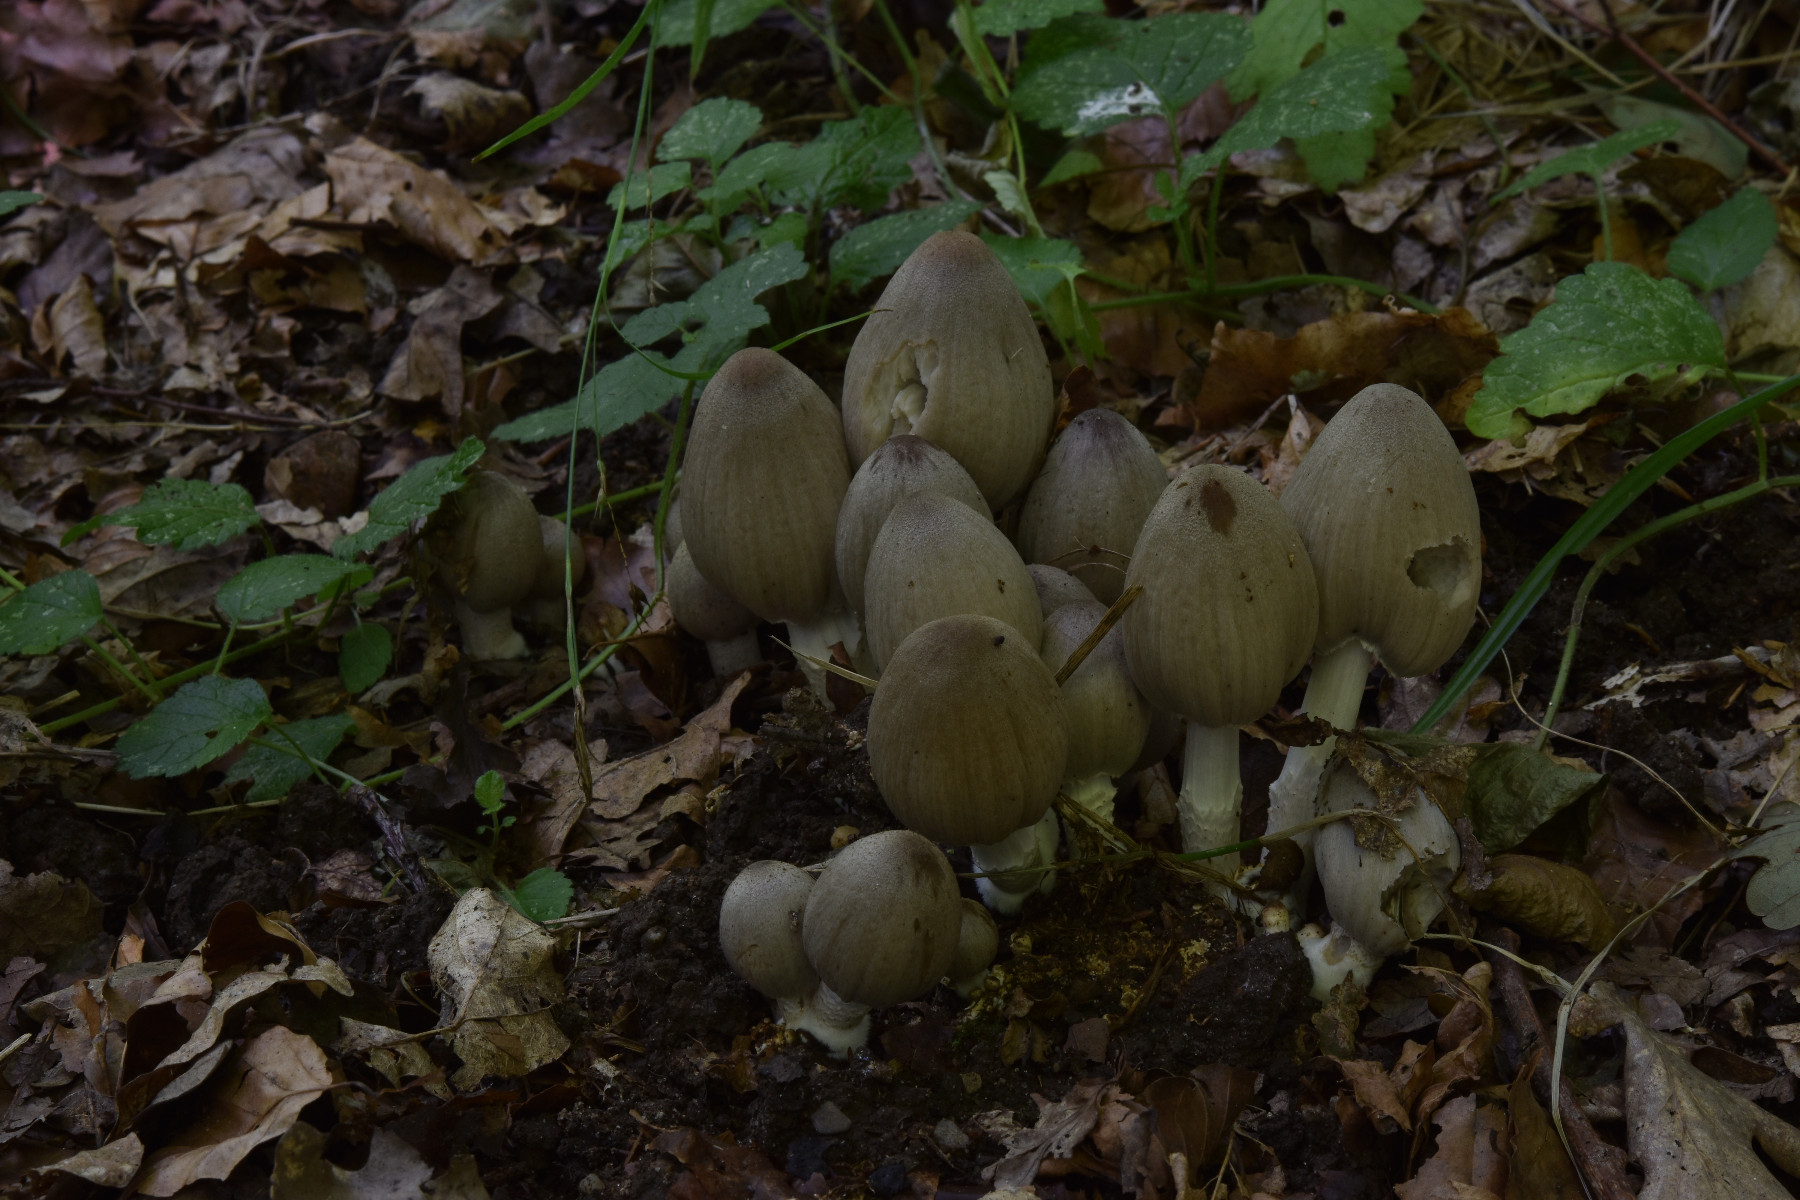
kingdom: Fungi
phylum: Basidiomycota
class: Agaricomycetes
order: Agaricales
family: Psathyrellaceae
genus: Coprinopsis
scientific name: Coprinopsis atramentaria
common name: almindelig blækhat
